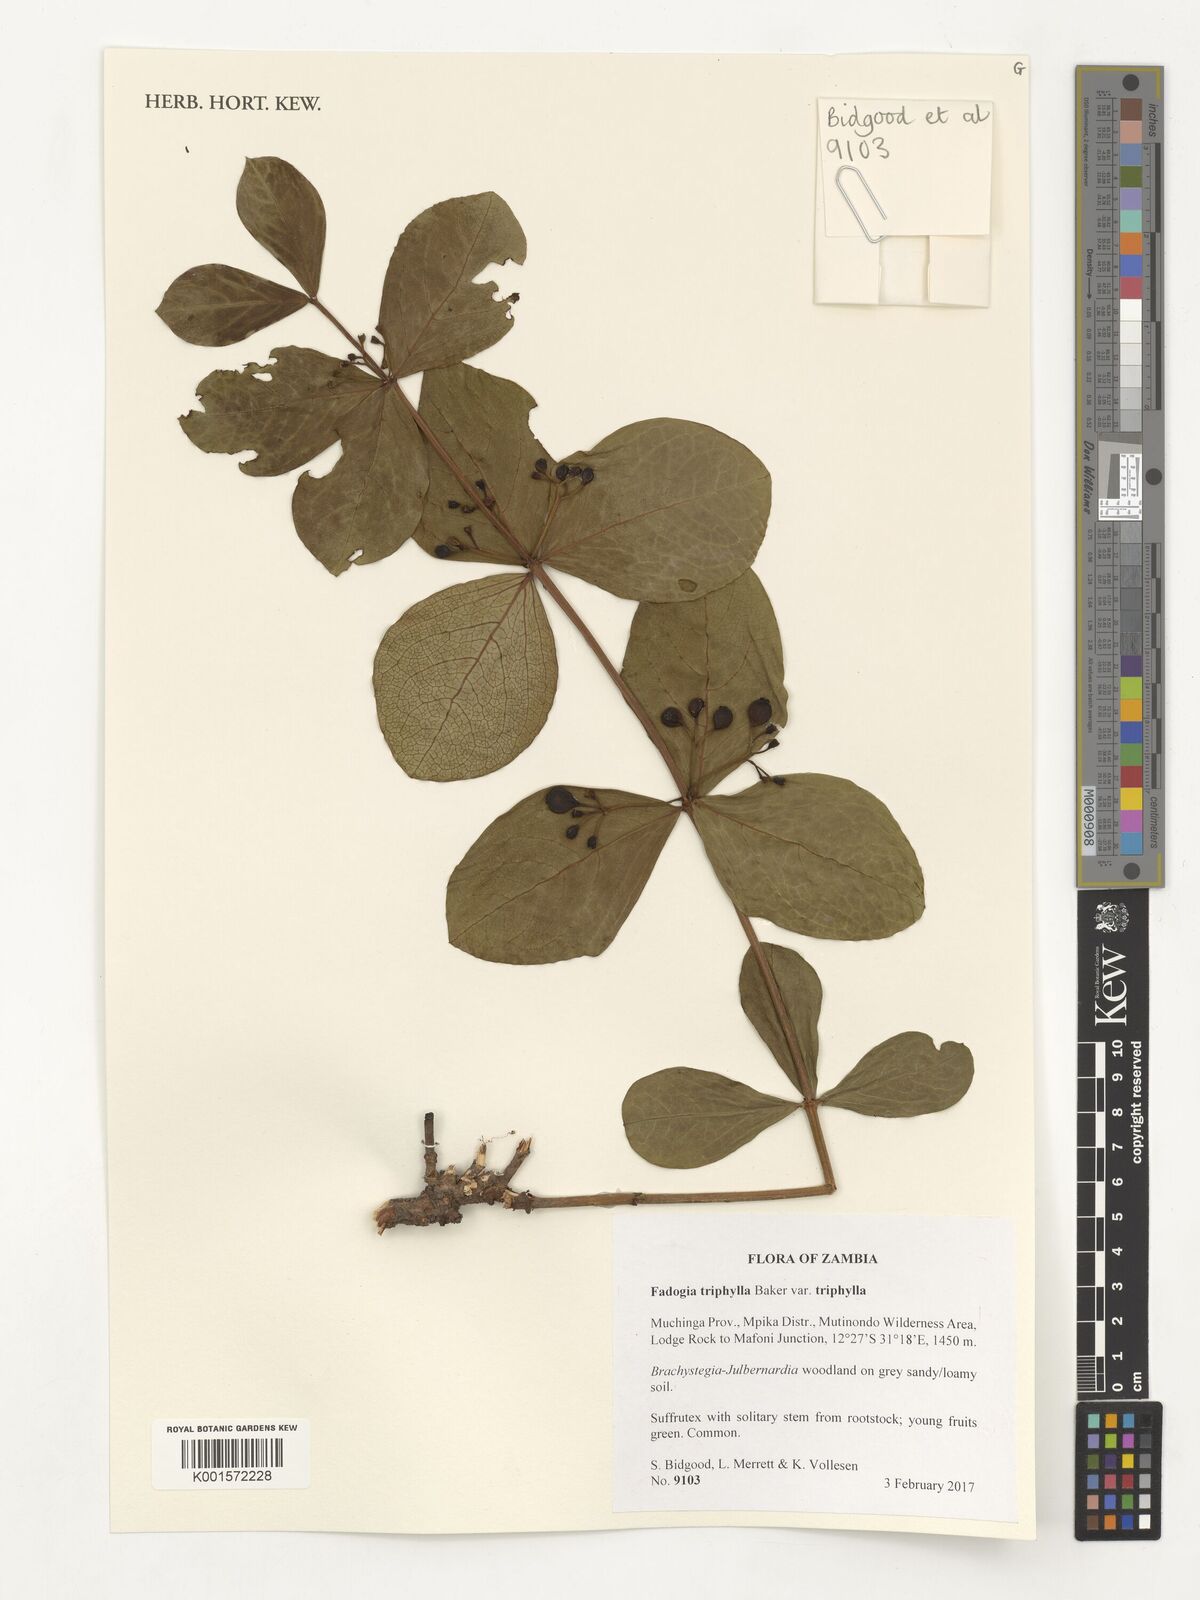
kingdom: Plantae
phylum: Tracheophyta
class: Magnoliopsida
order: Gentianales
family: Rubiaceae
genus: Fadogia
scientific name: Fadogia triphylla
